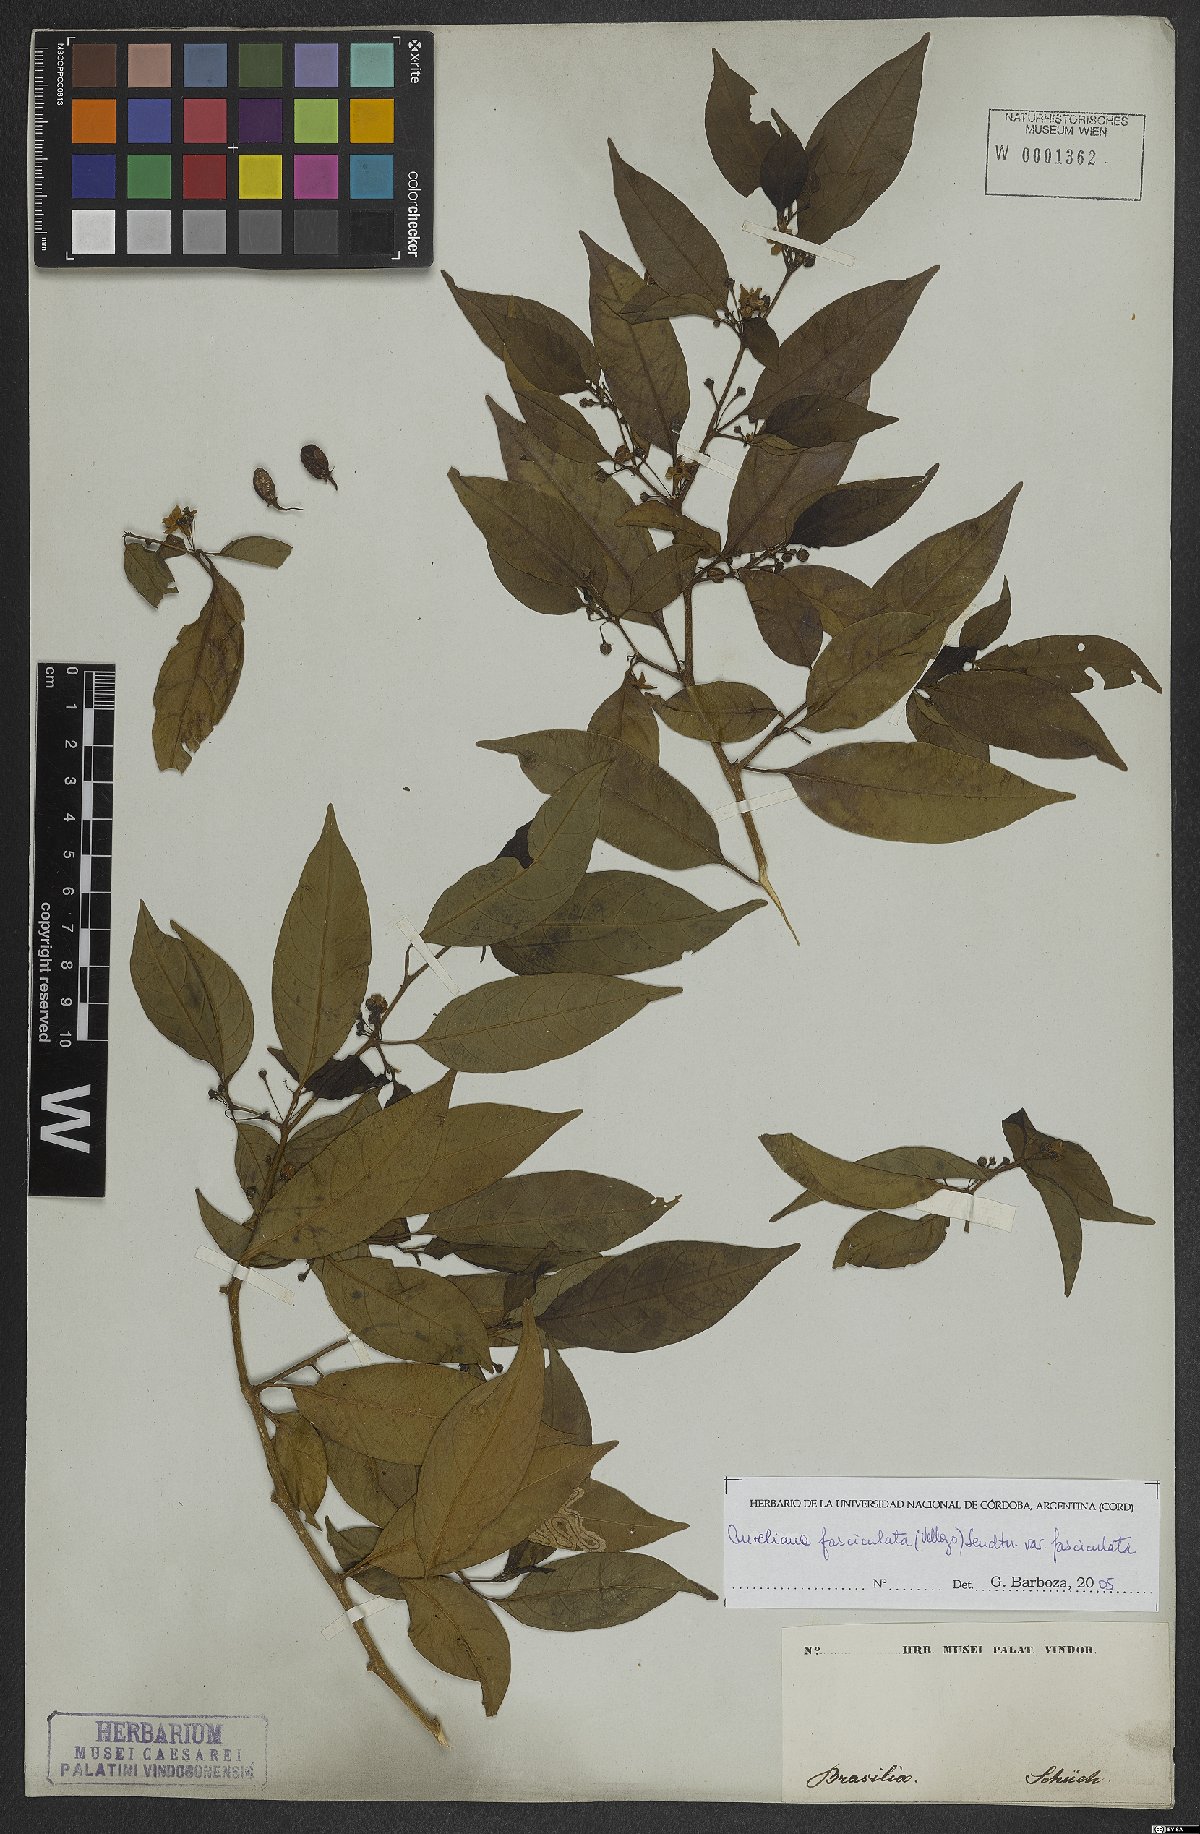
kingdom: Plantae
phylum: Tracheophyta
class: Magnoliopsida
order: Solanales
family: Solanaceae
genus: Athenaea
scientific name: Athenaea fasciculata
